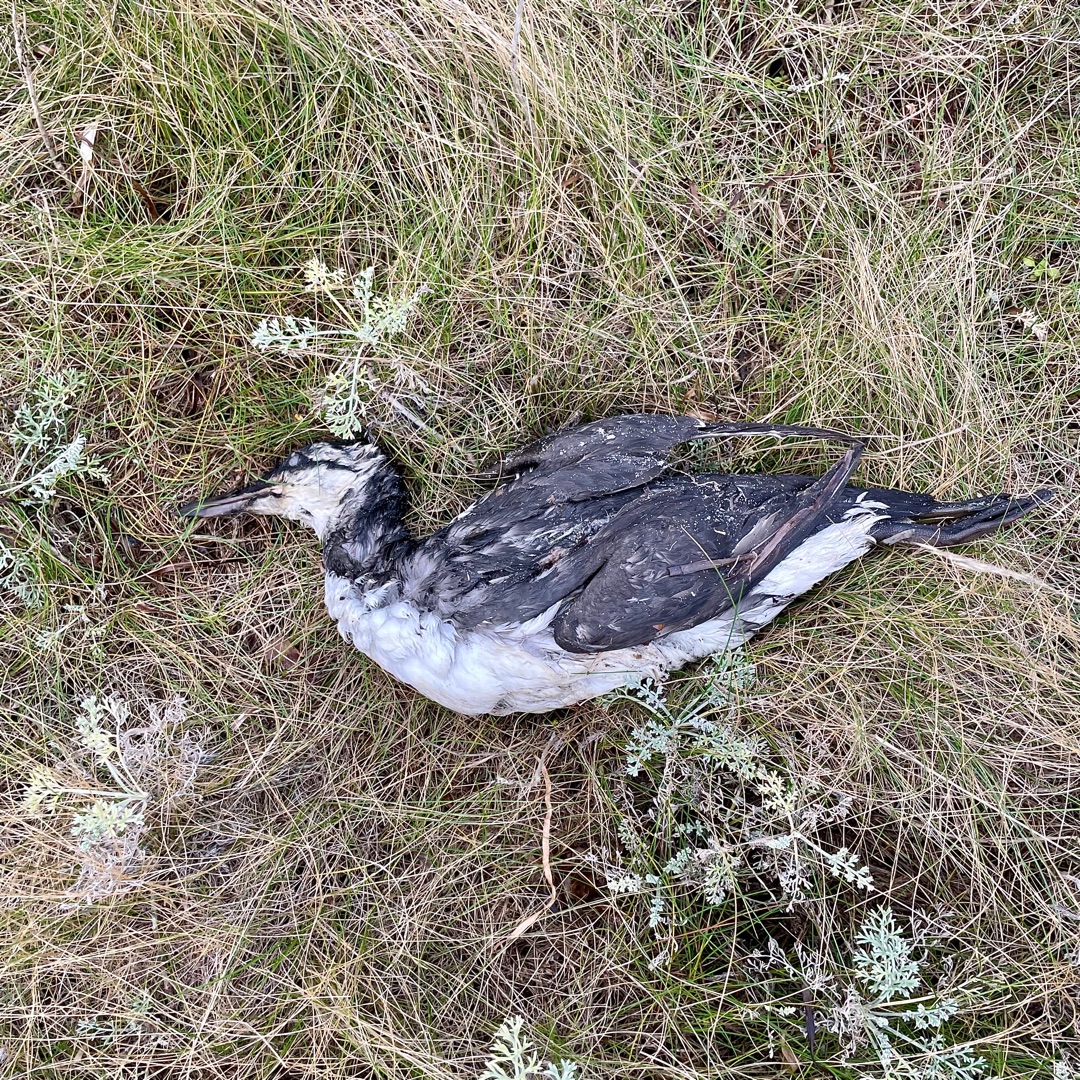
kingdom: Animalia
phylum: Chordata
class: Aves
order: Charadriiformes
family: Alcidae
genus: Uria
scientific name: Uria aalge
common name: Lomvie
